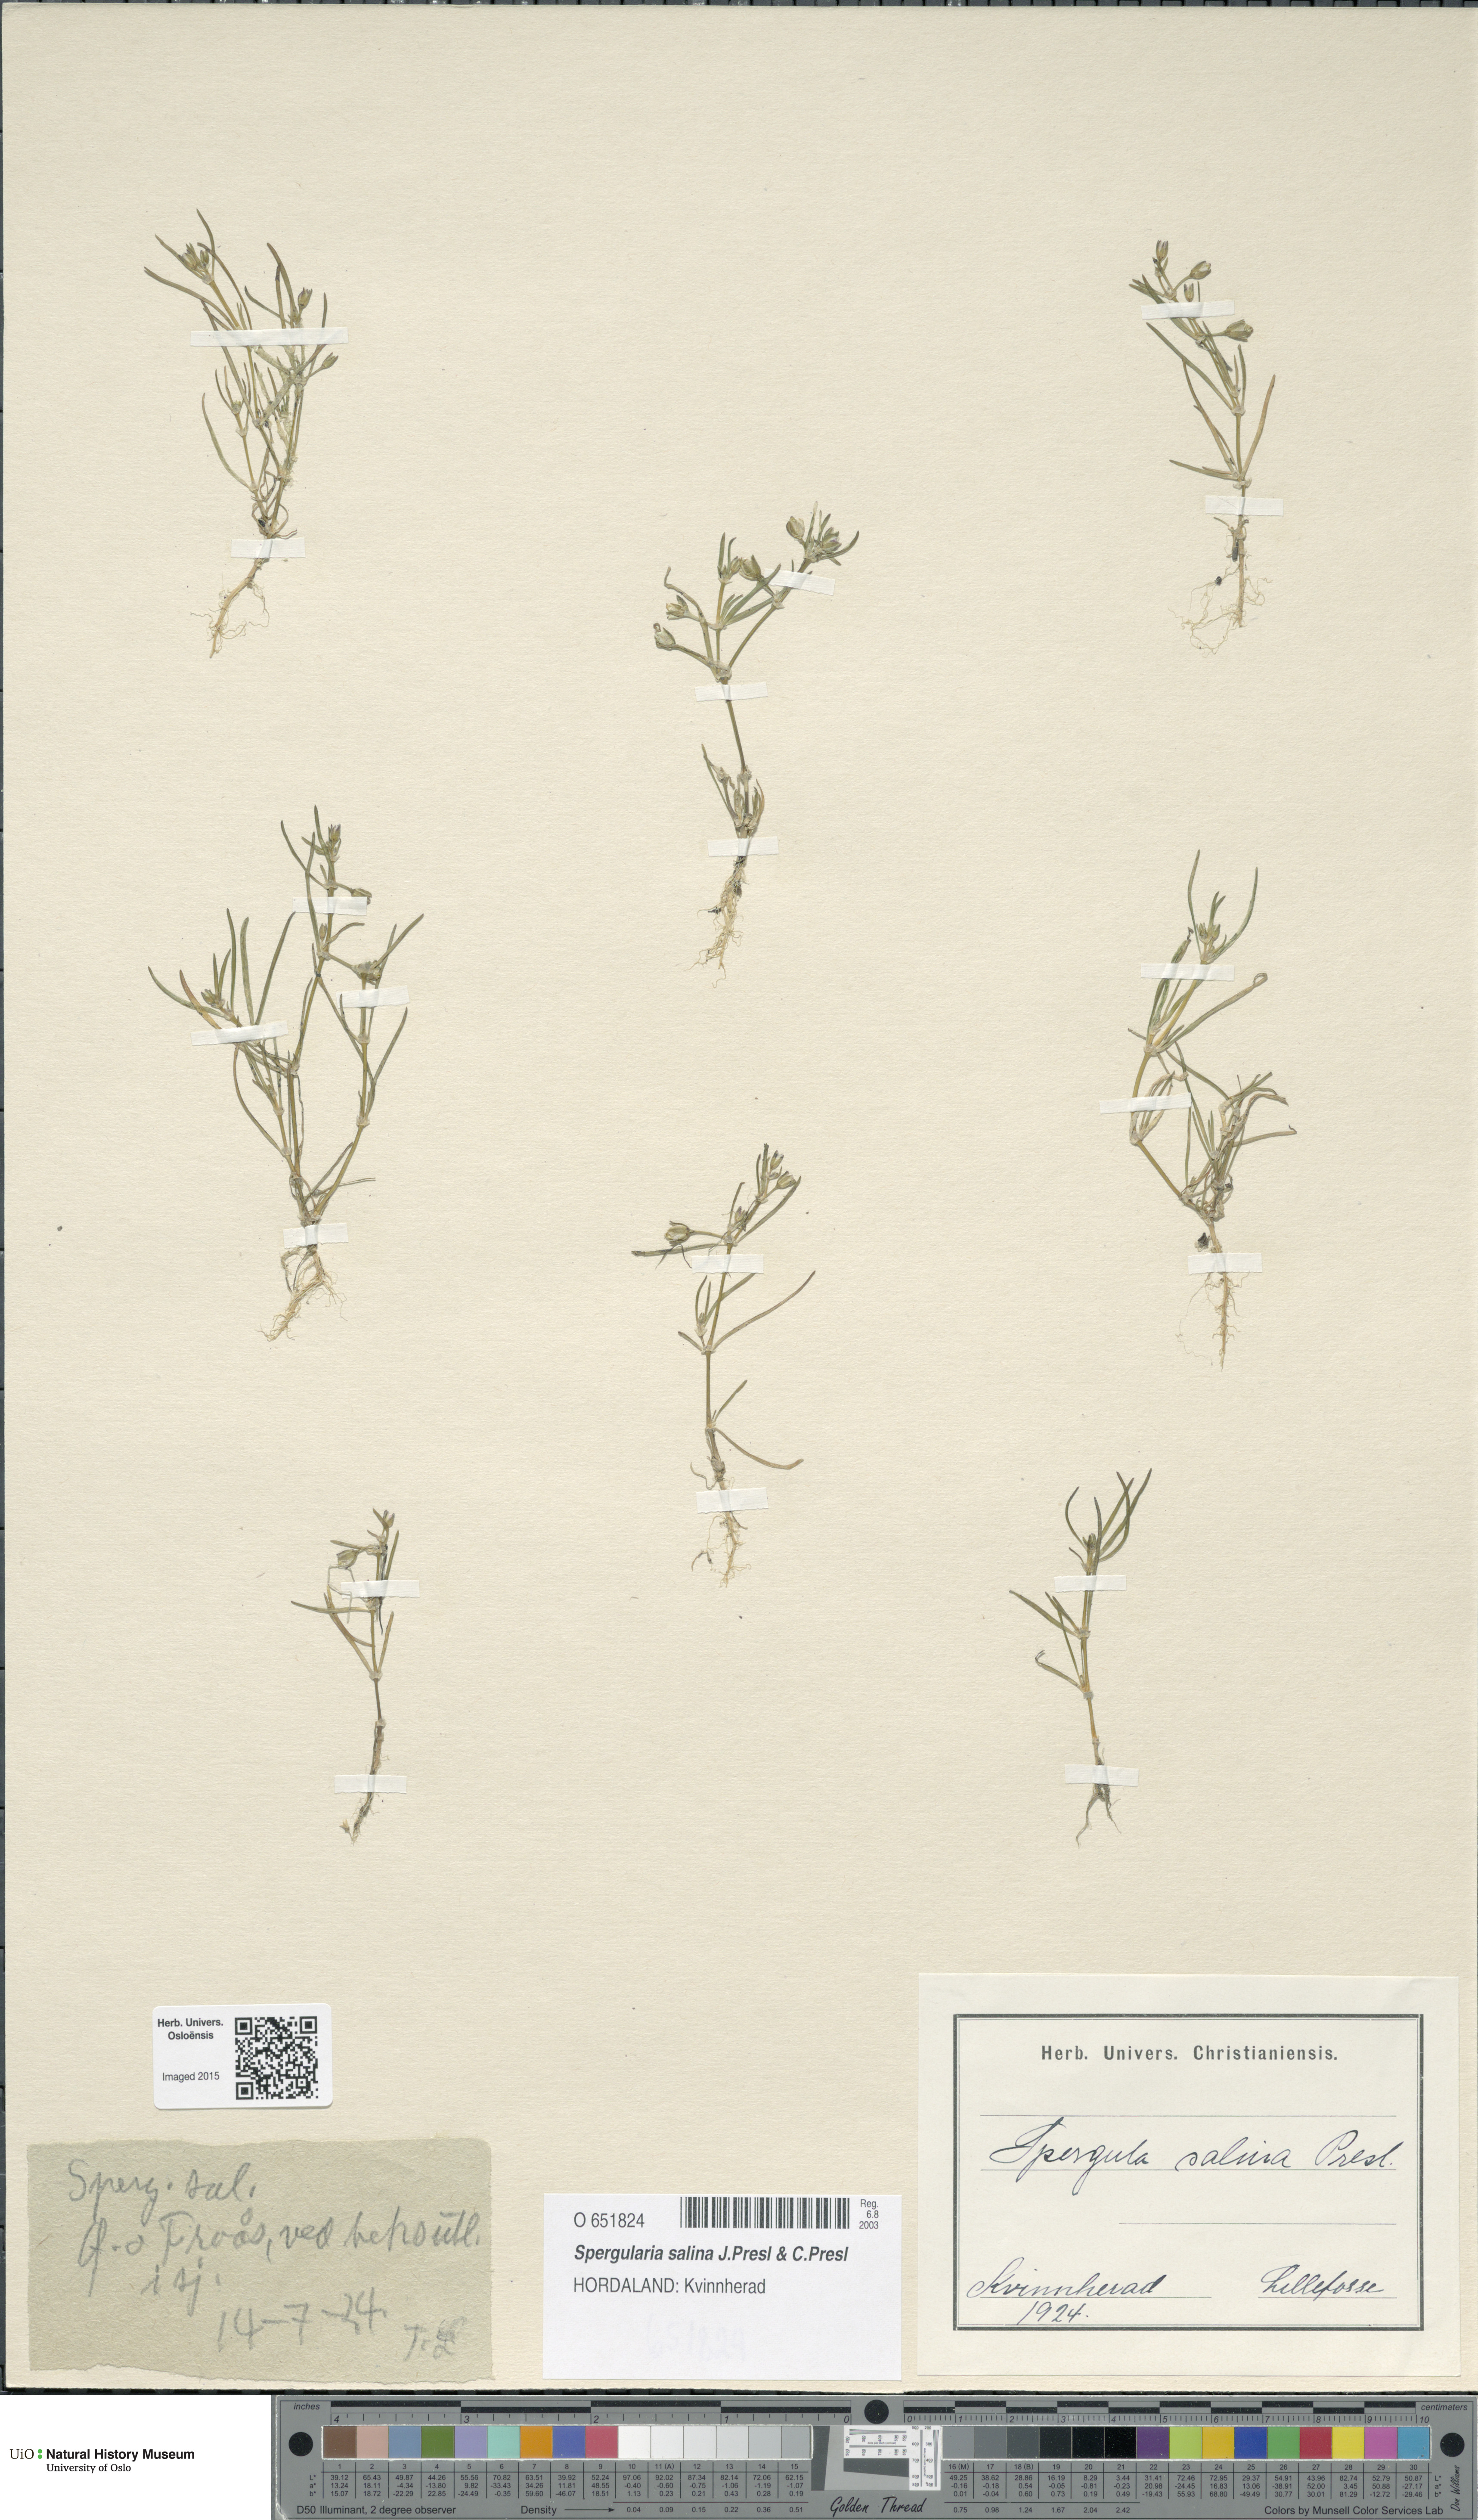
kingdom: Plantae
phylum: Tracheophyta
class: Magnoliopsida
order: Caryophyllales
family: Caryophyllaceae
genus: Spergularia
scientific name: Spergularia marina
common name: Lesser sea-spurrey
